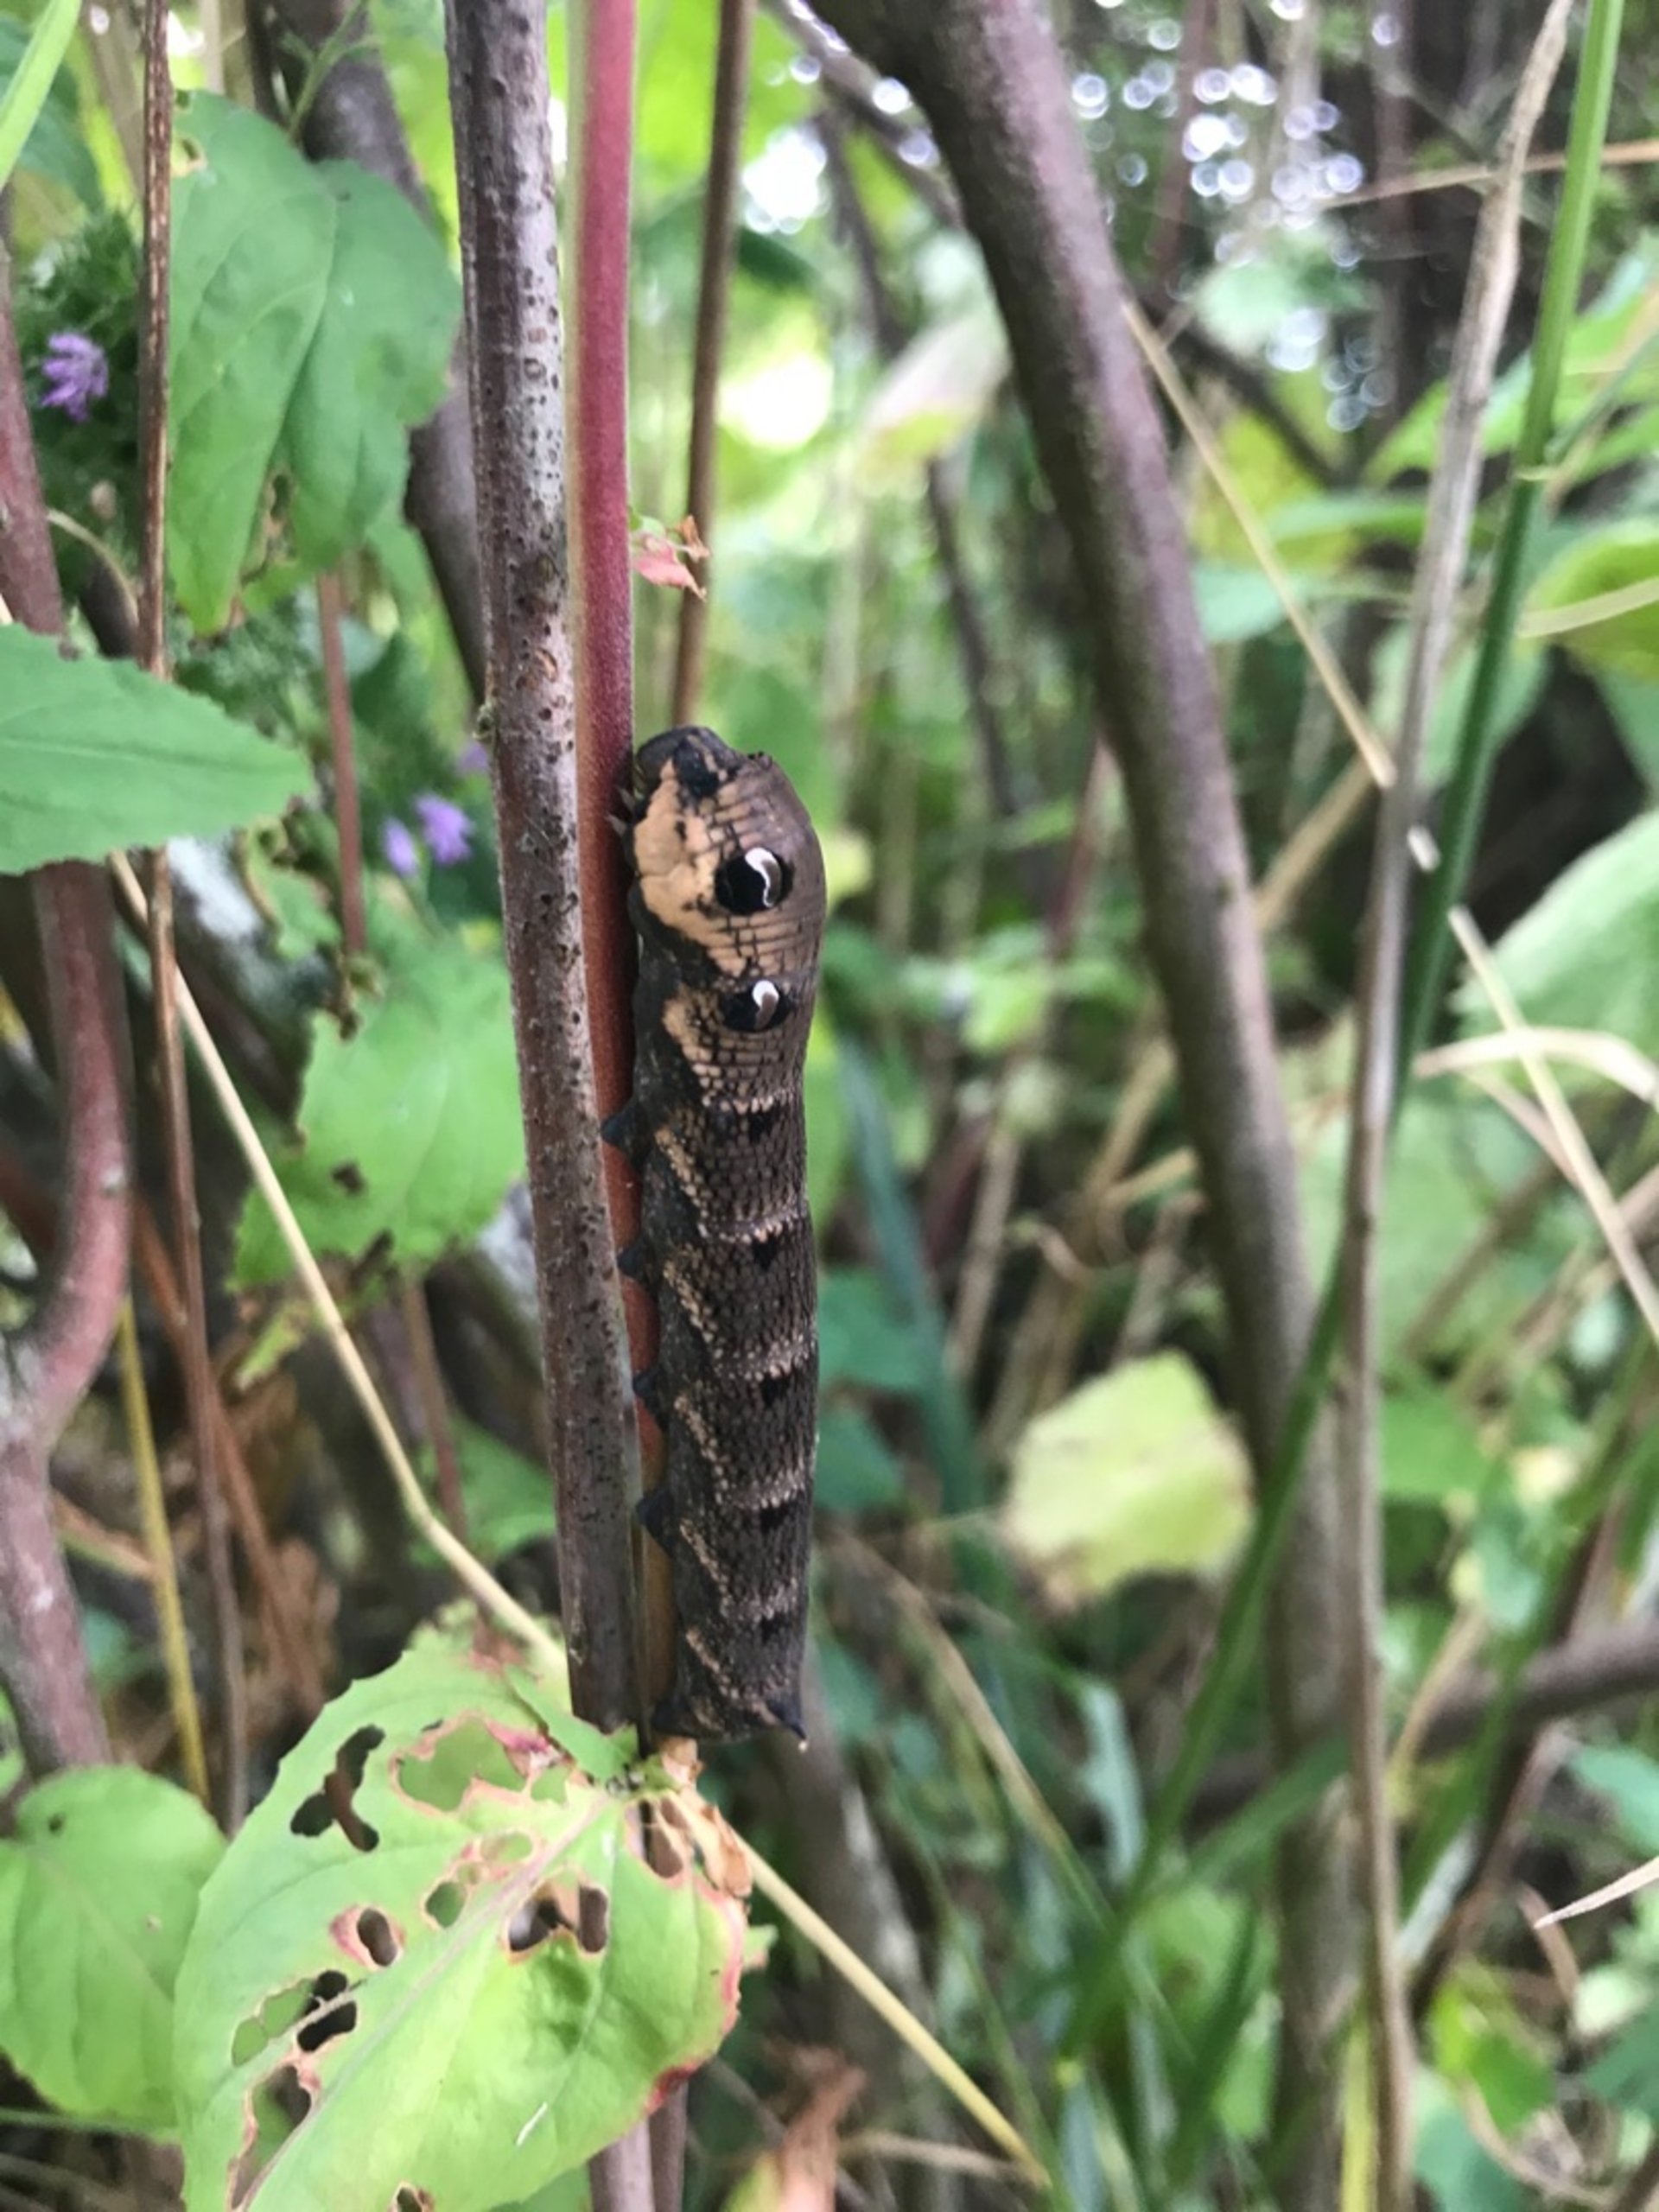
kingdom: Animalia
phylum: Arthropoda
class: Insecta
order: Lepidoptera
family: Sphingidae
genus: Deilephila
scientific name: Deilephila elpenor
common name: Dueurtsværmer
